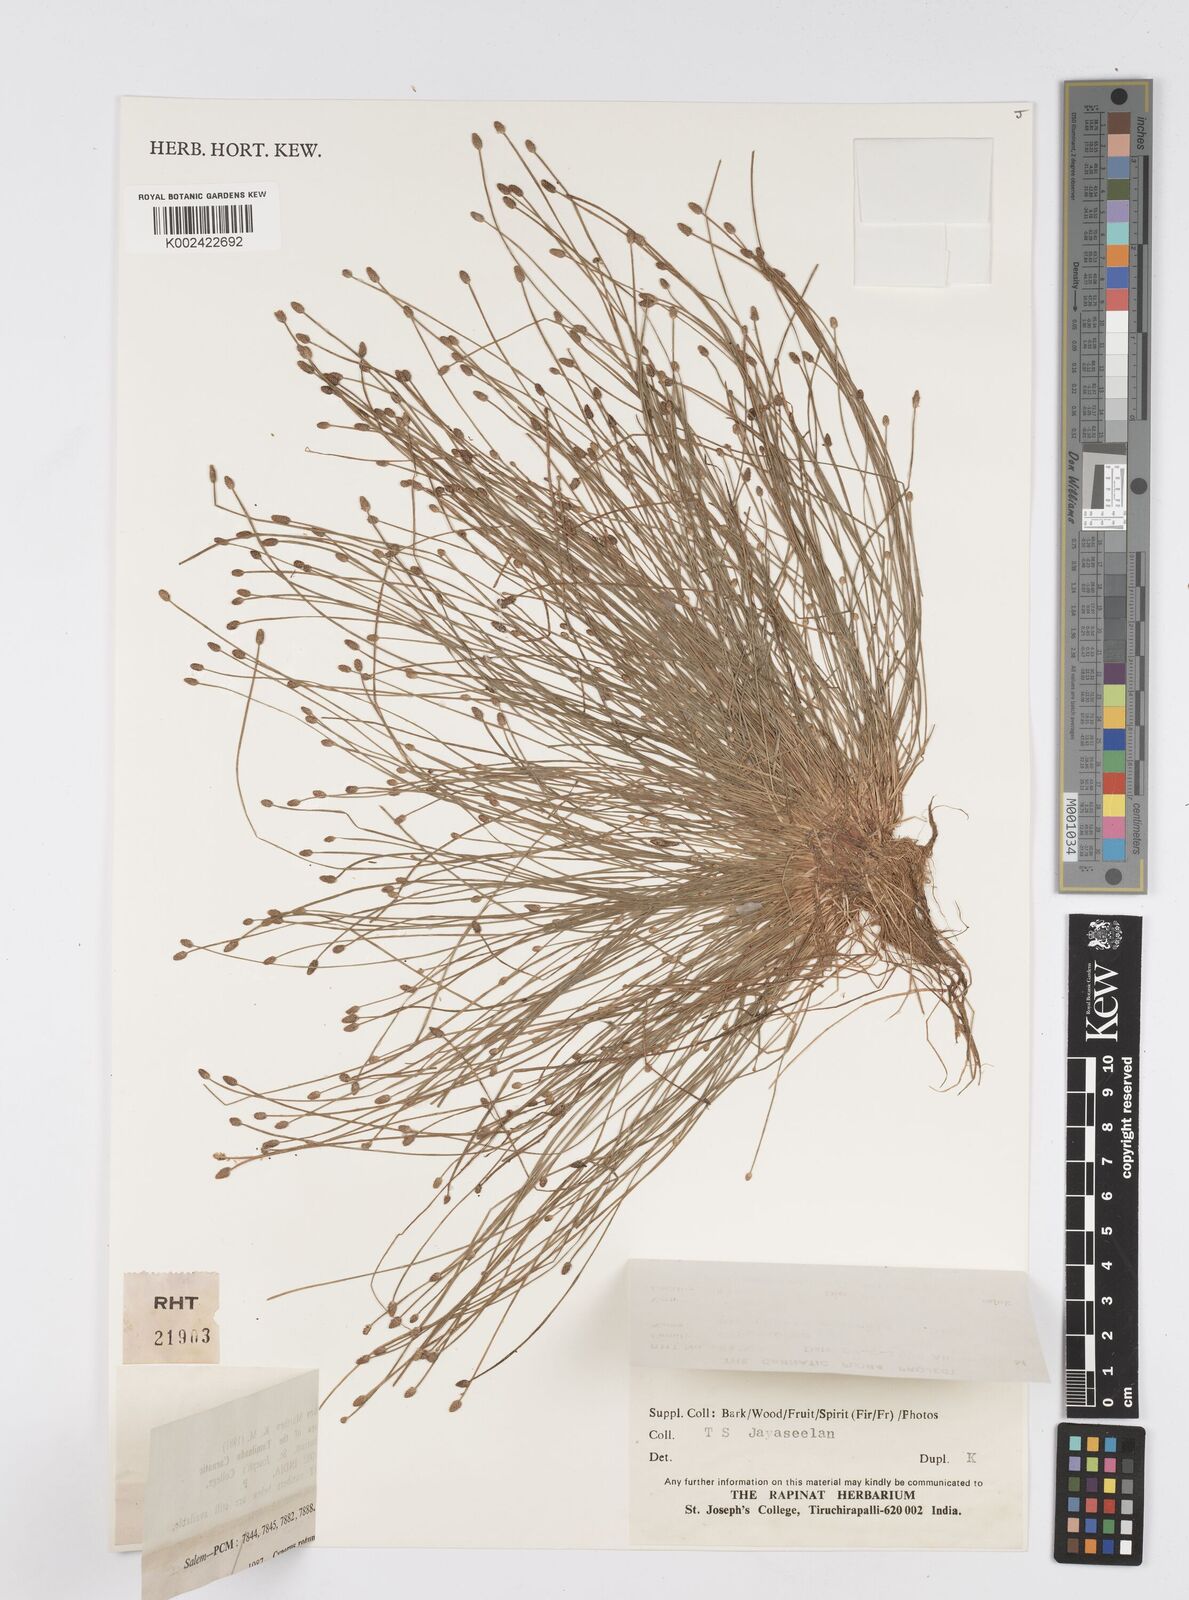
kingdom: Plantae
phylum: Tracheophyta
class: Liliopsida
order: Poales
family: Cyperaceae
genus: Eleocharis
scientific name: Eleocharis congesta
